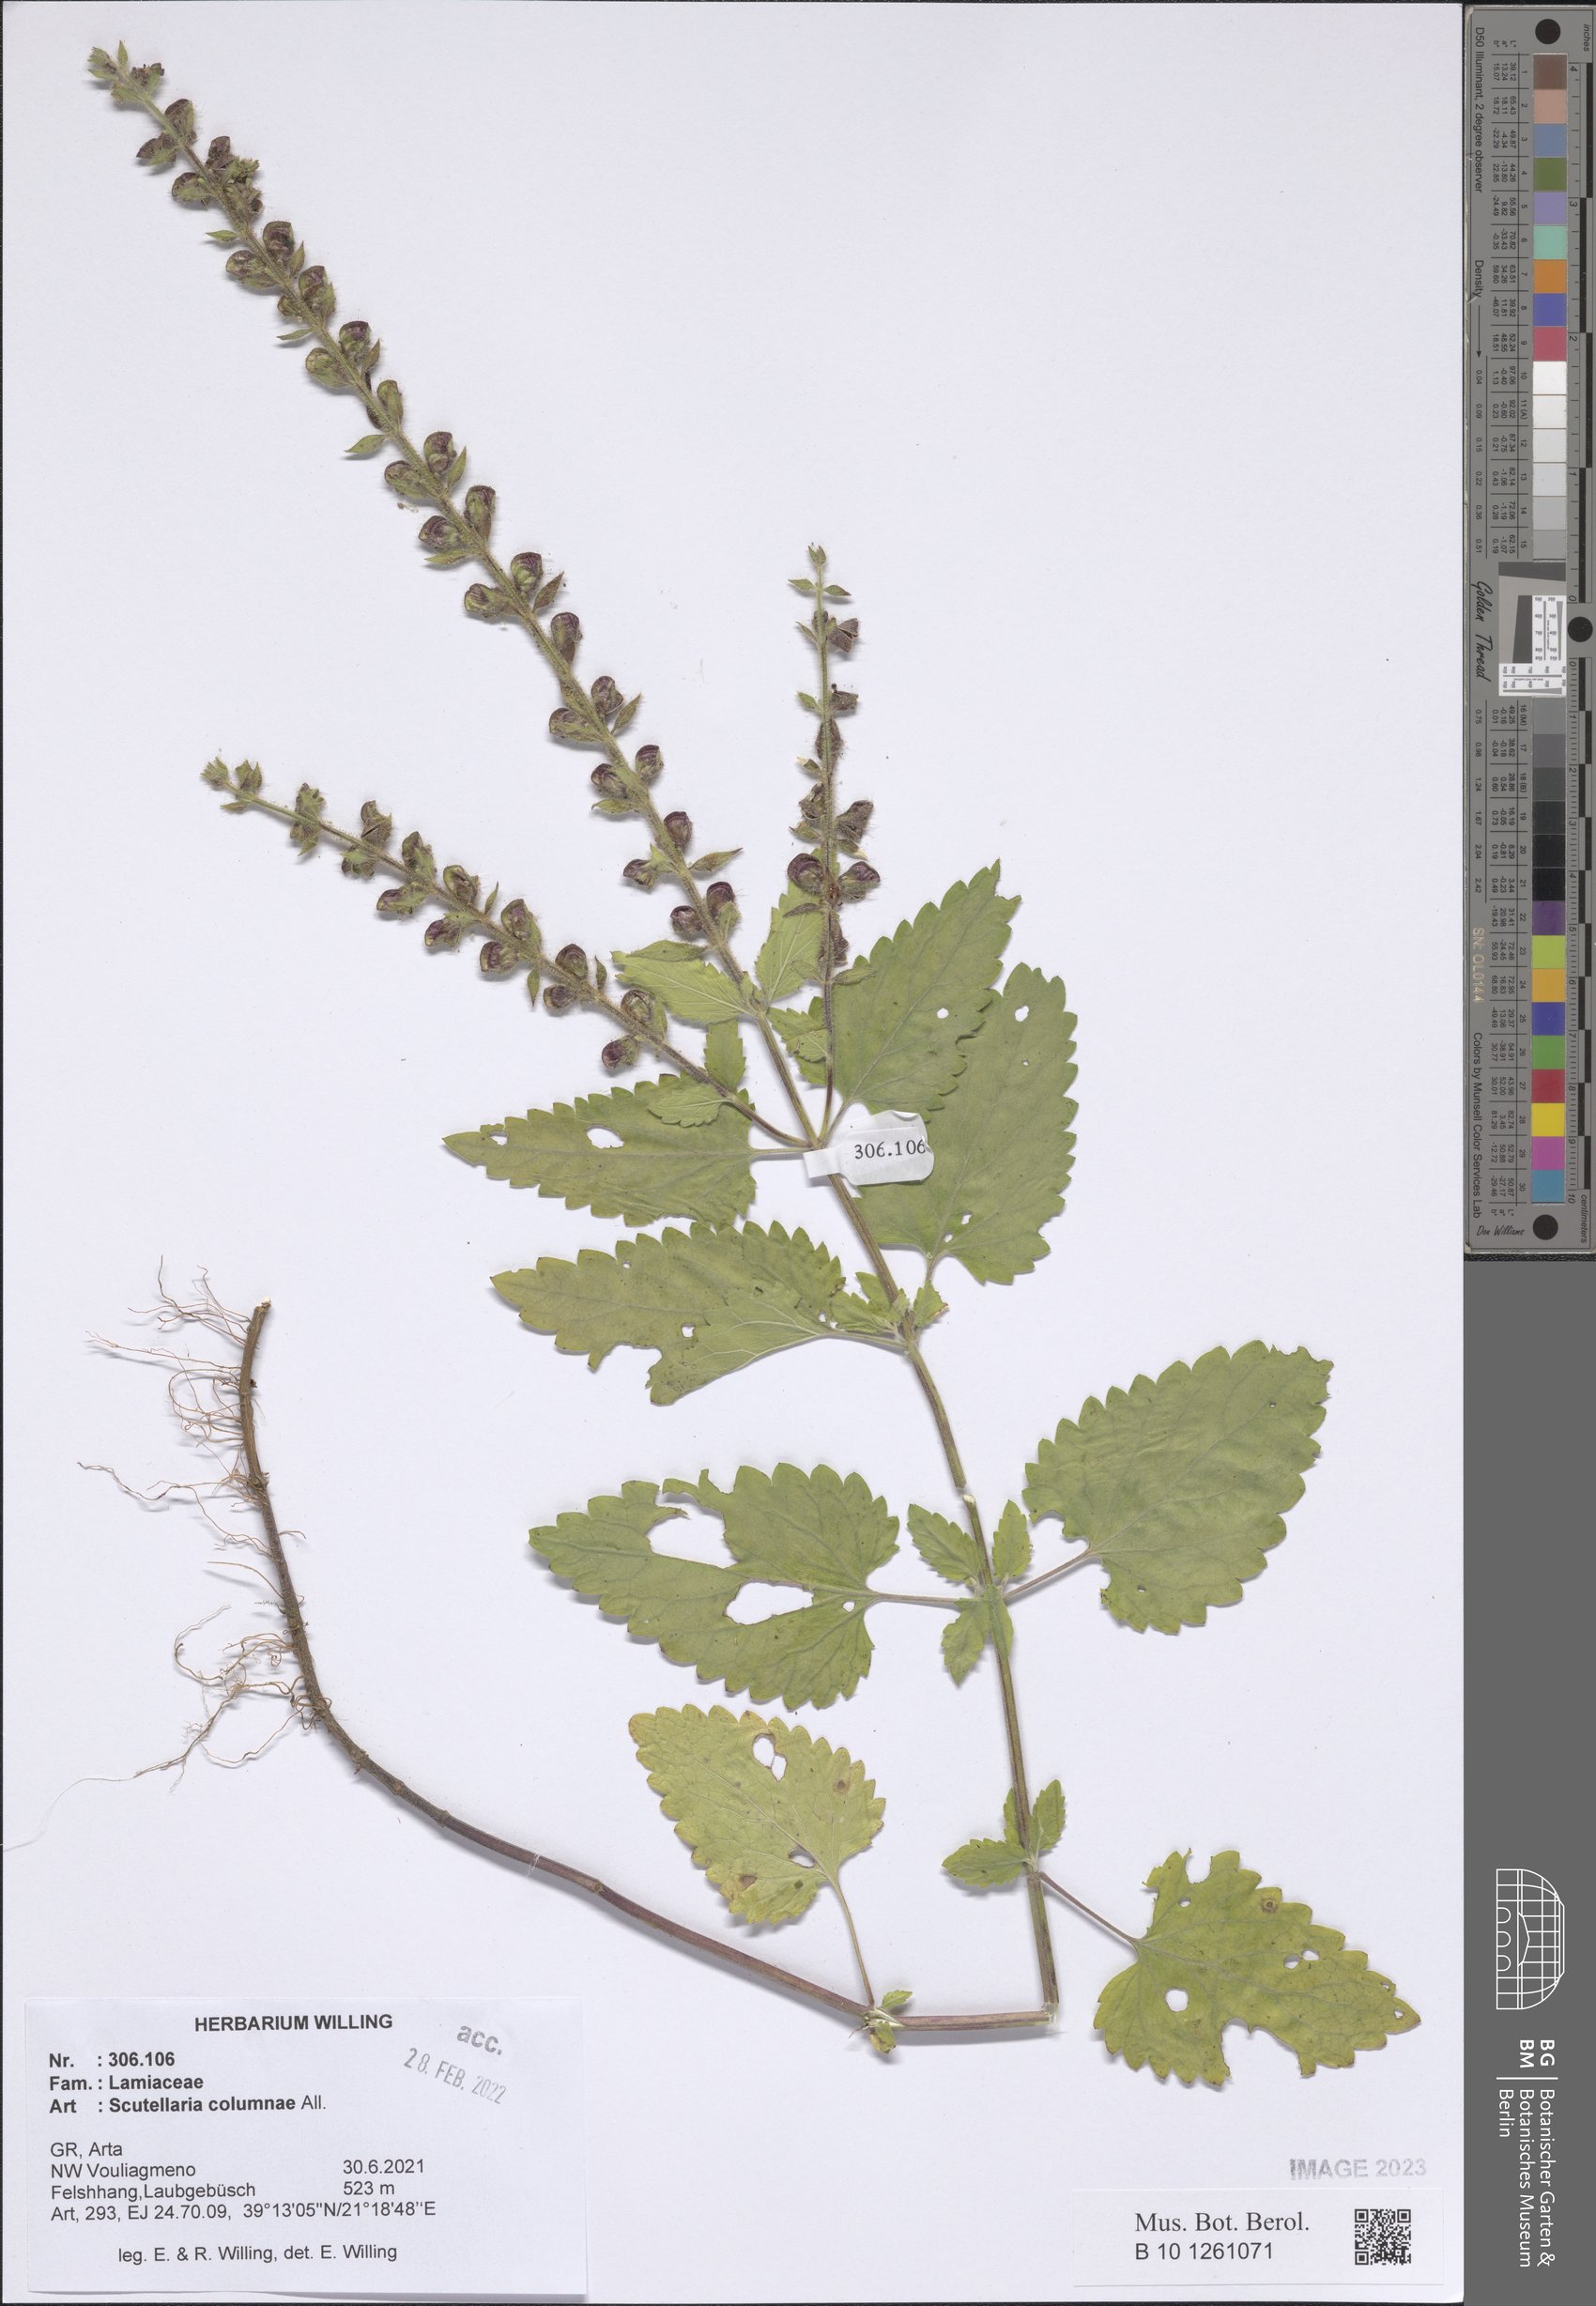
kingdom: Plantae
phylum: Tracheophyta
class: Magnoliopsida
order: Lamiales
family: Lamiaceae
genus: Scutellaria
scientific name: Scutellaria columnae
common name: Large skullcap
